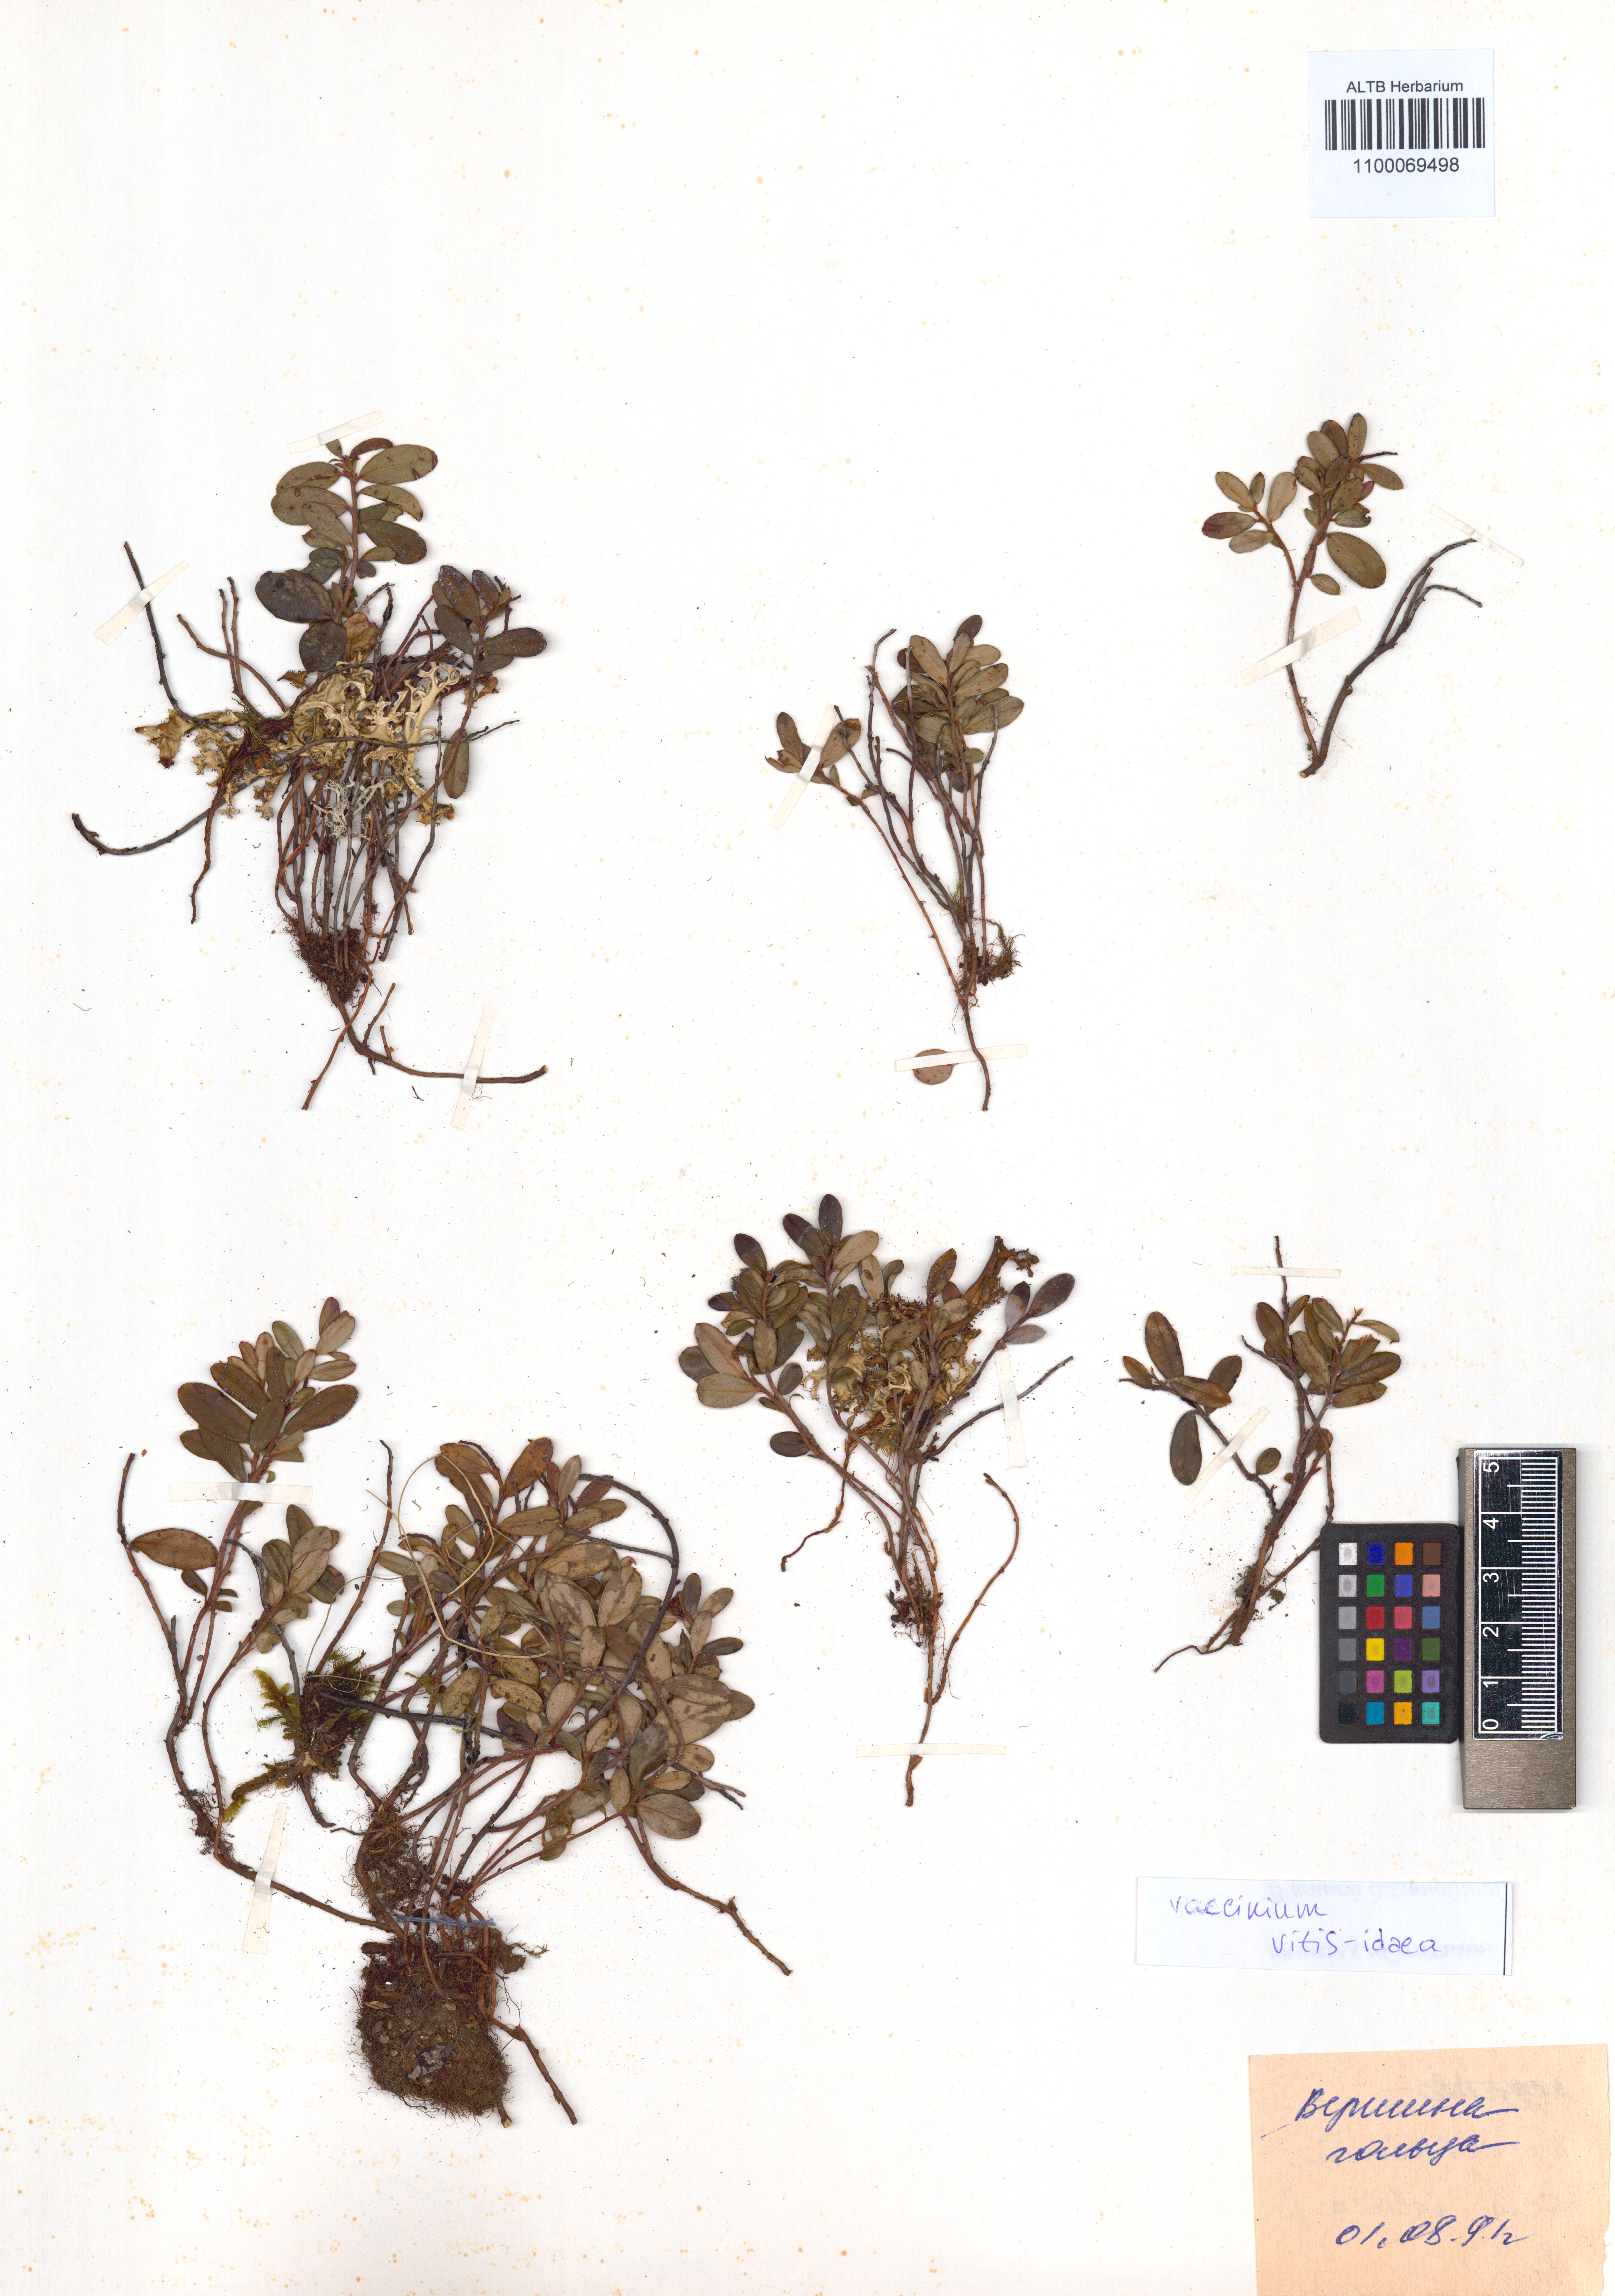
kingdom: Plantae
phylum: Tracheophyta
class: Magnoliopsida
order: Ericales
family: Ericaceae
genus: Vaccinium
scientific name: Vaccinium vitis-idaea
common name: Cowberry
